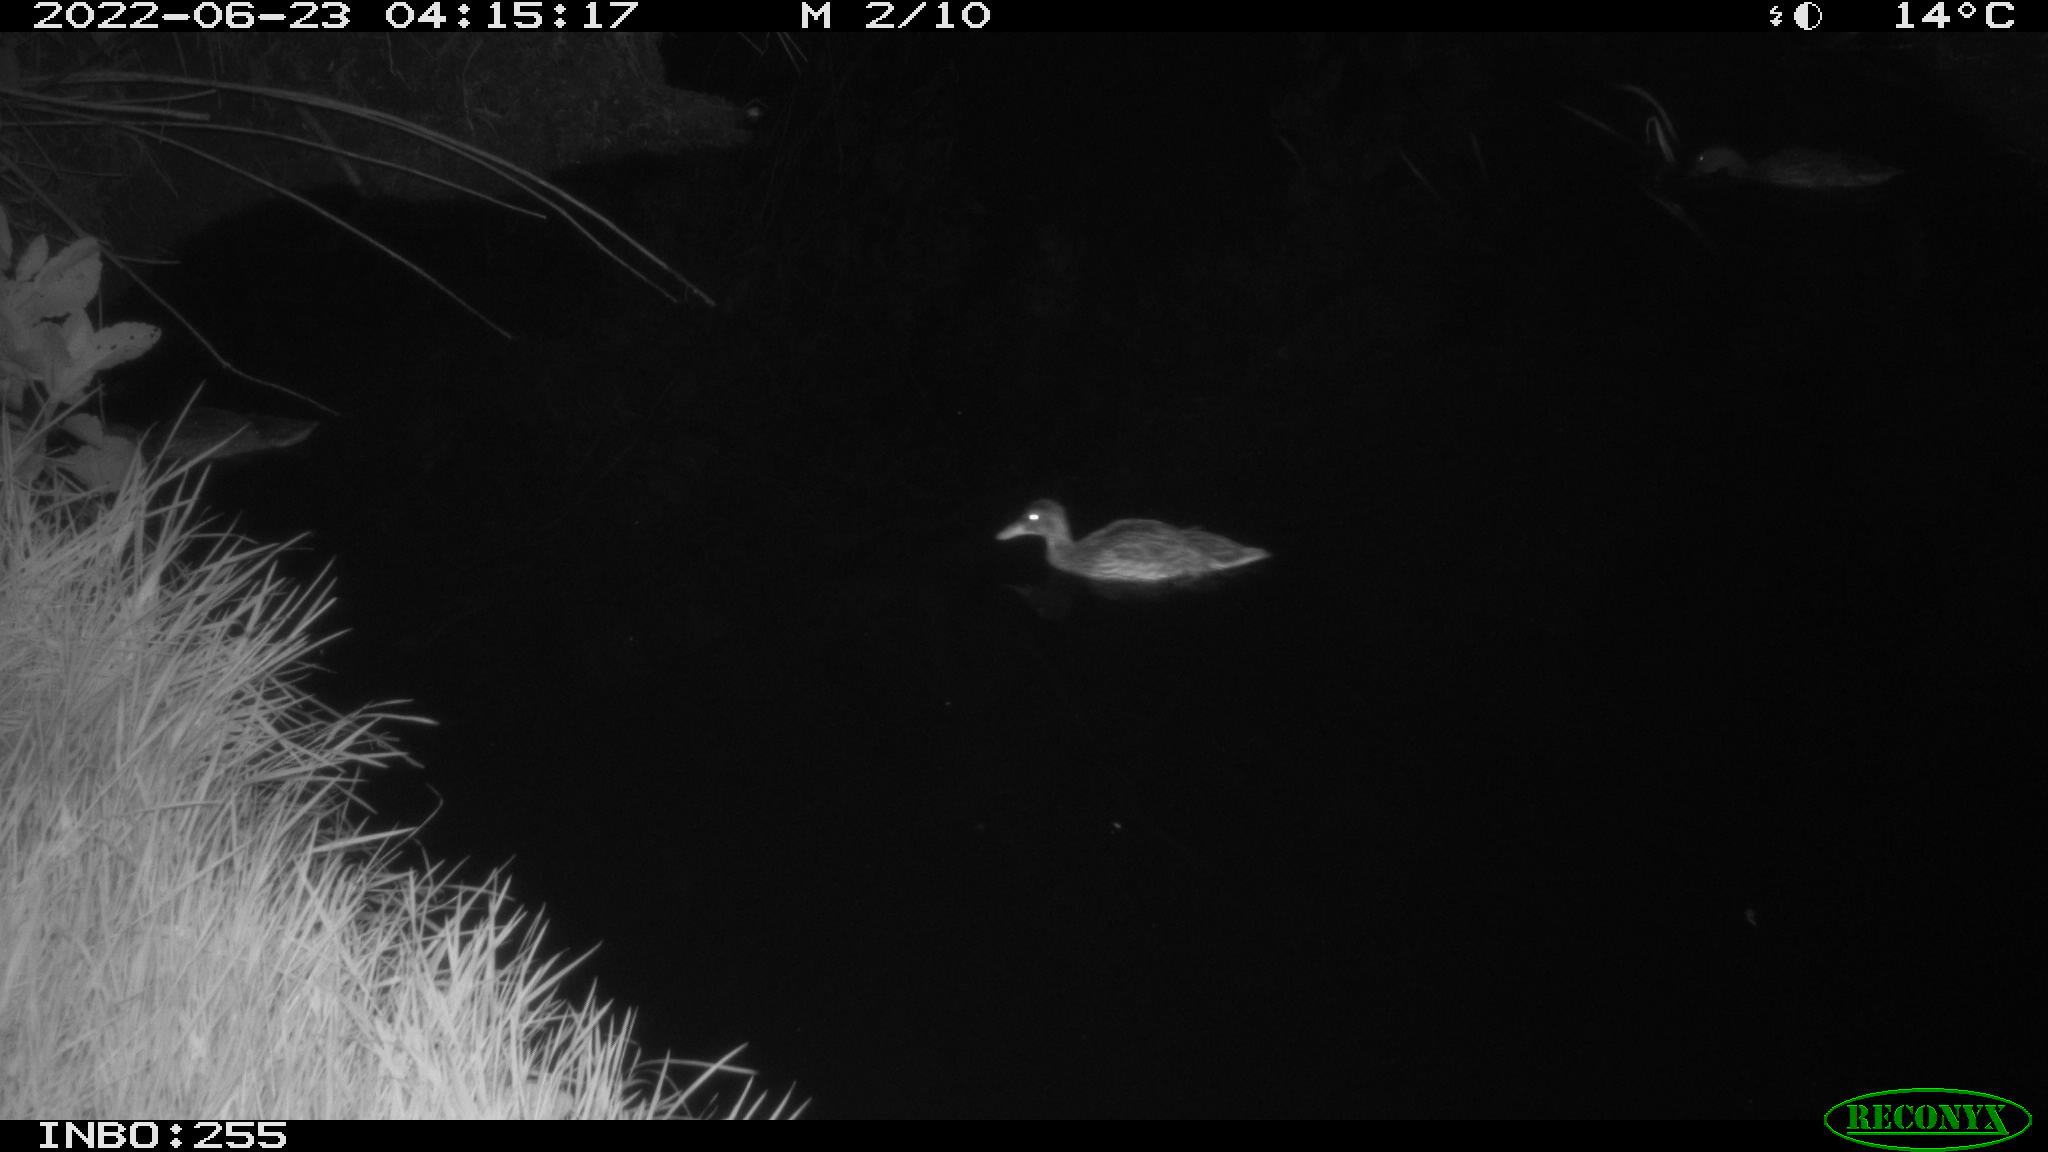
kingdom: Animalia
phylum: Chordata
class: Aves
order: Anseriformes
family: Anatidae
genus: Anas
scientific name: Anas platyrhynchos
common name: Mallard
